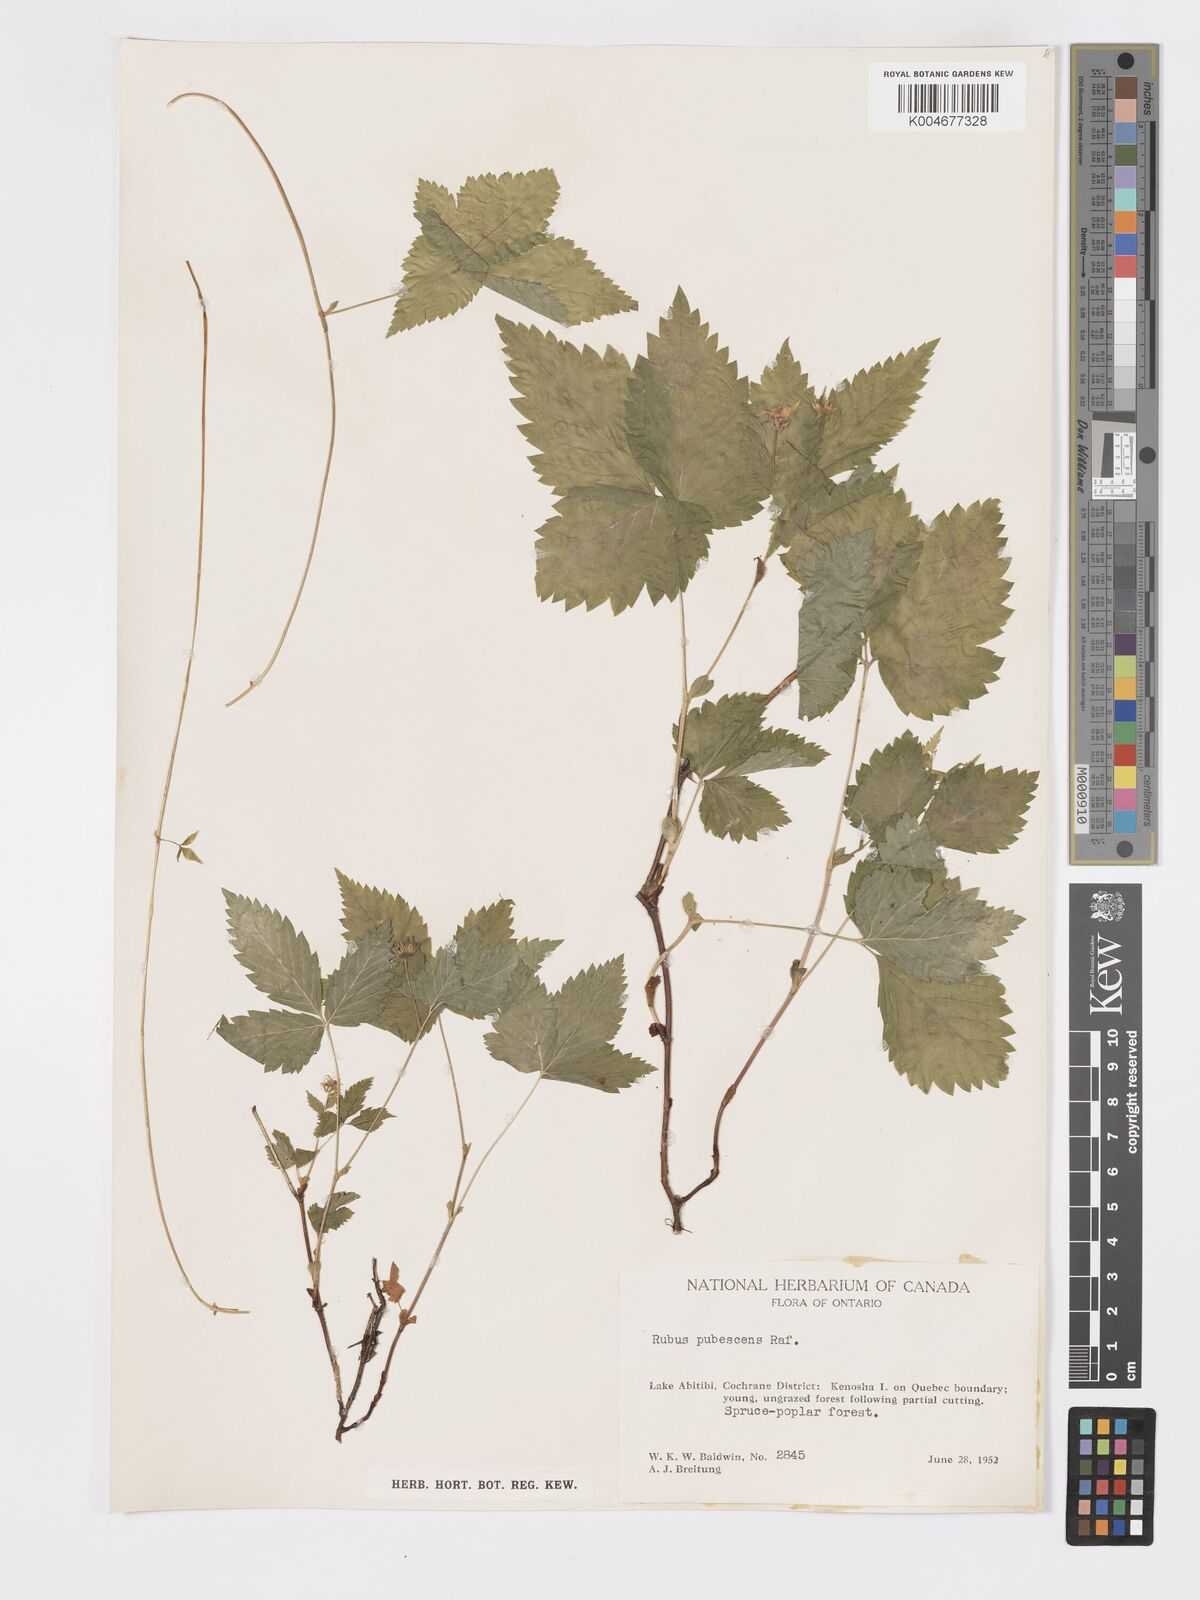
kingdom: Plantae
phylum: Tracheophyta
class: Magnoliopsida
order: Rosales
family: Rosaceae
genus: Rubus
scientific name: Rubus
